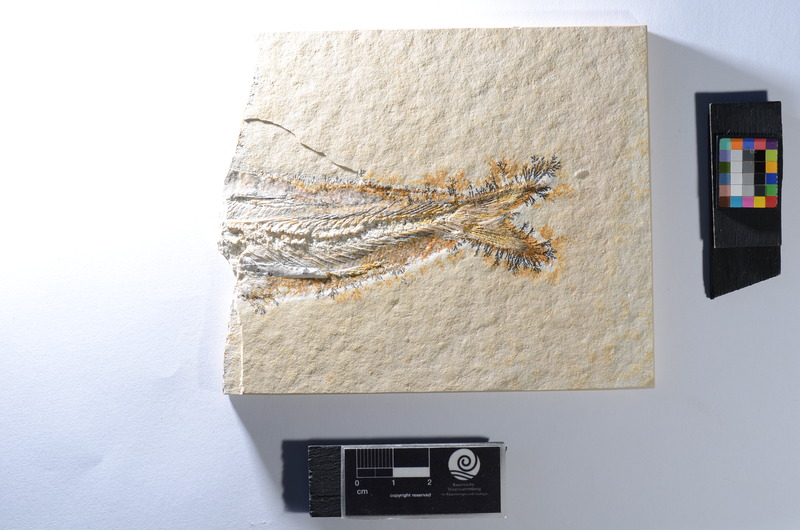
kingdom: Animalia
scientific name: Animalia
